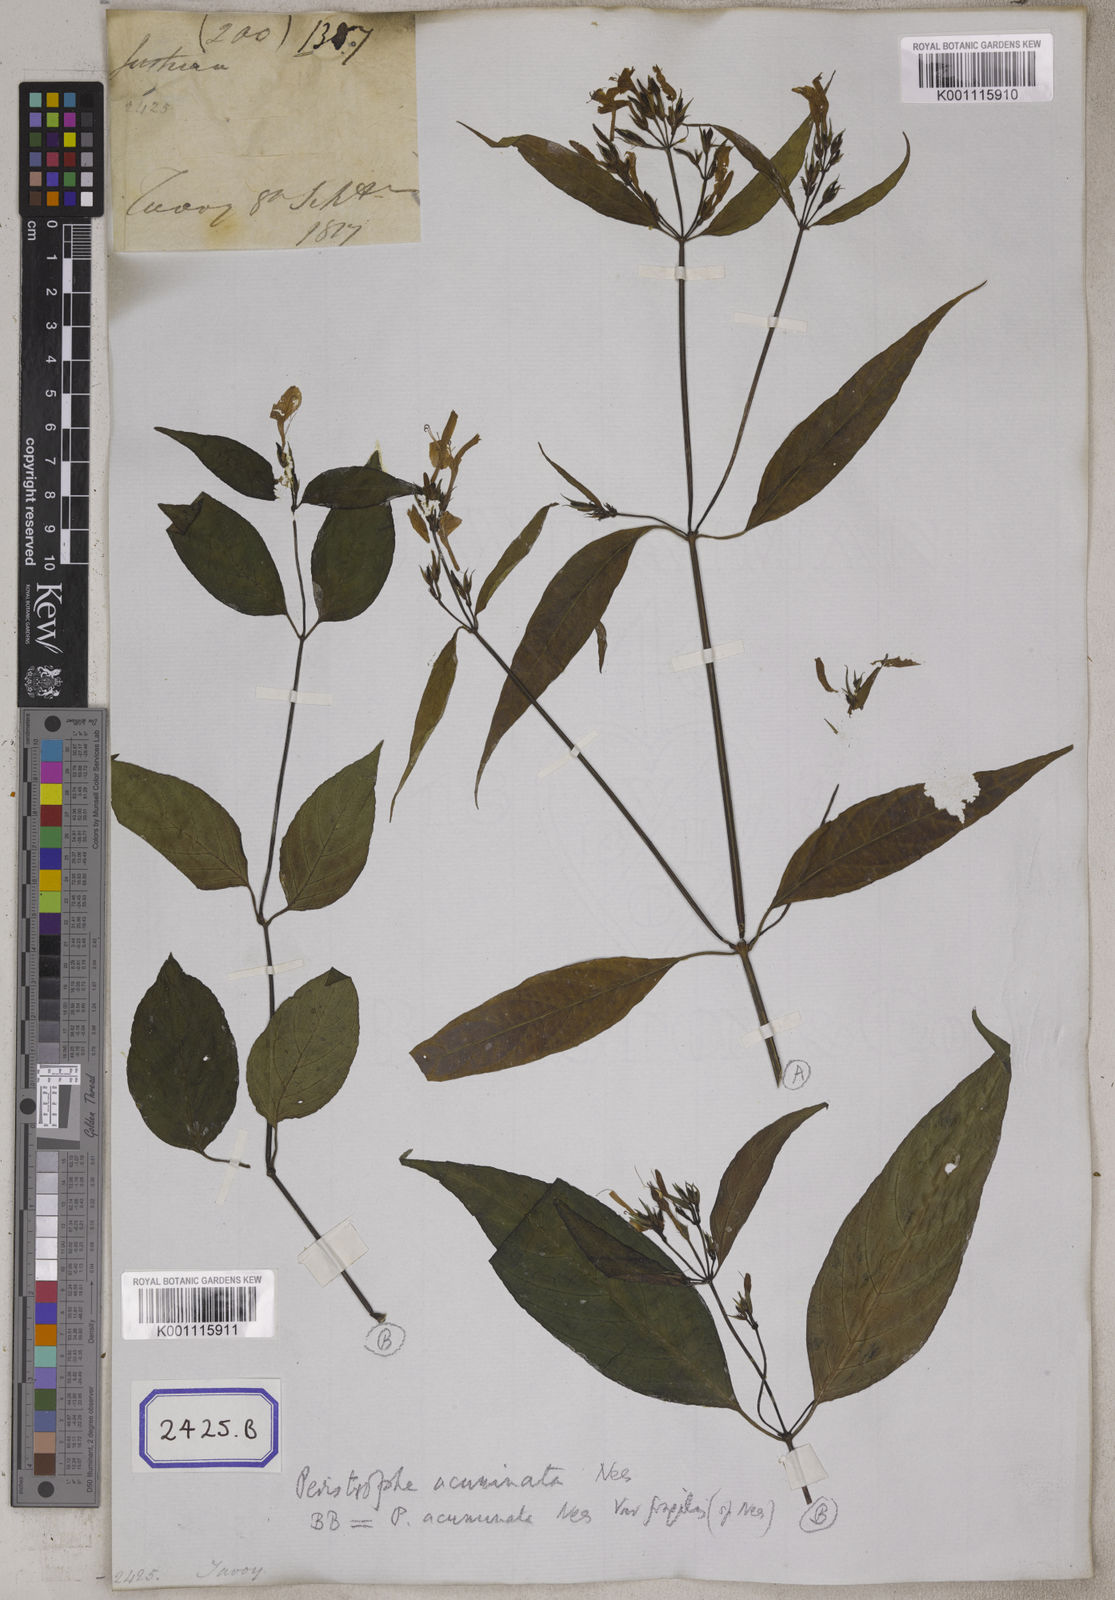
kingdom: Plantae
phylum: Tracheophyta
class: Magnoliopsida
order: Lamiales
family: Acanthaceae
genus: Dicliptera
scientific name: Dicliptera sebastinei
